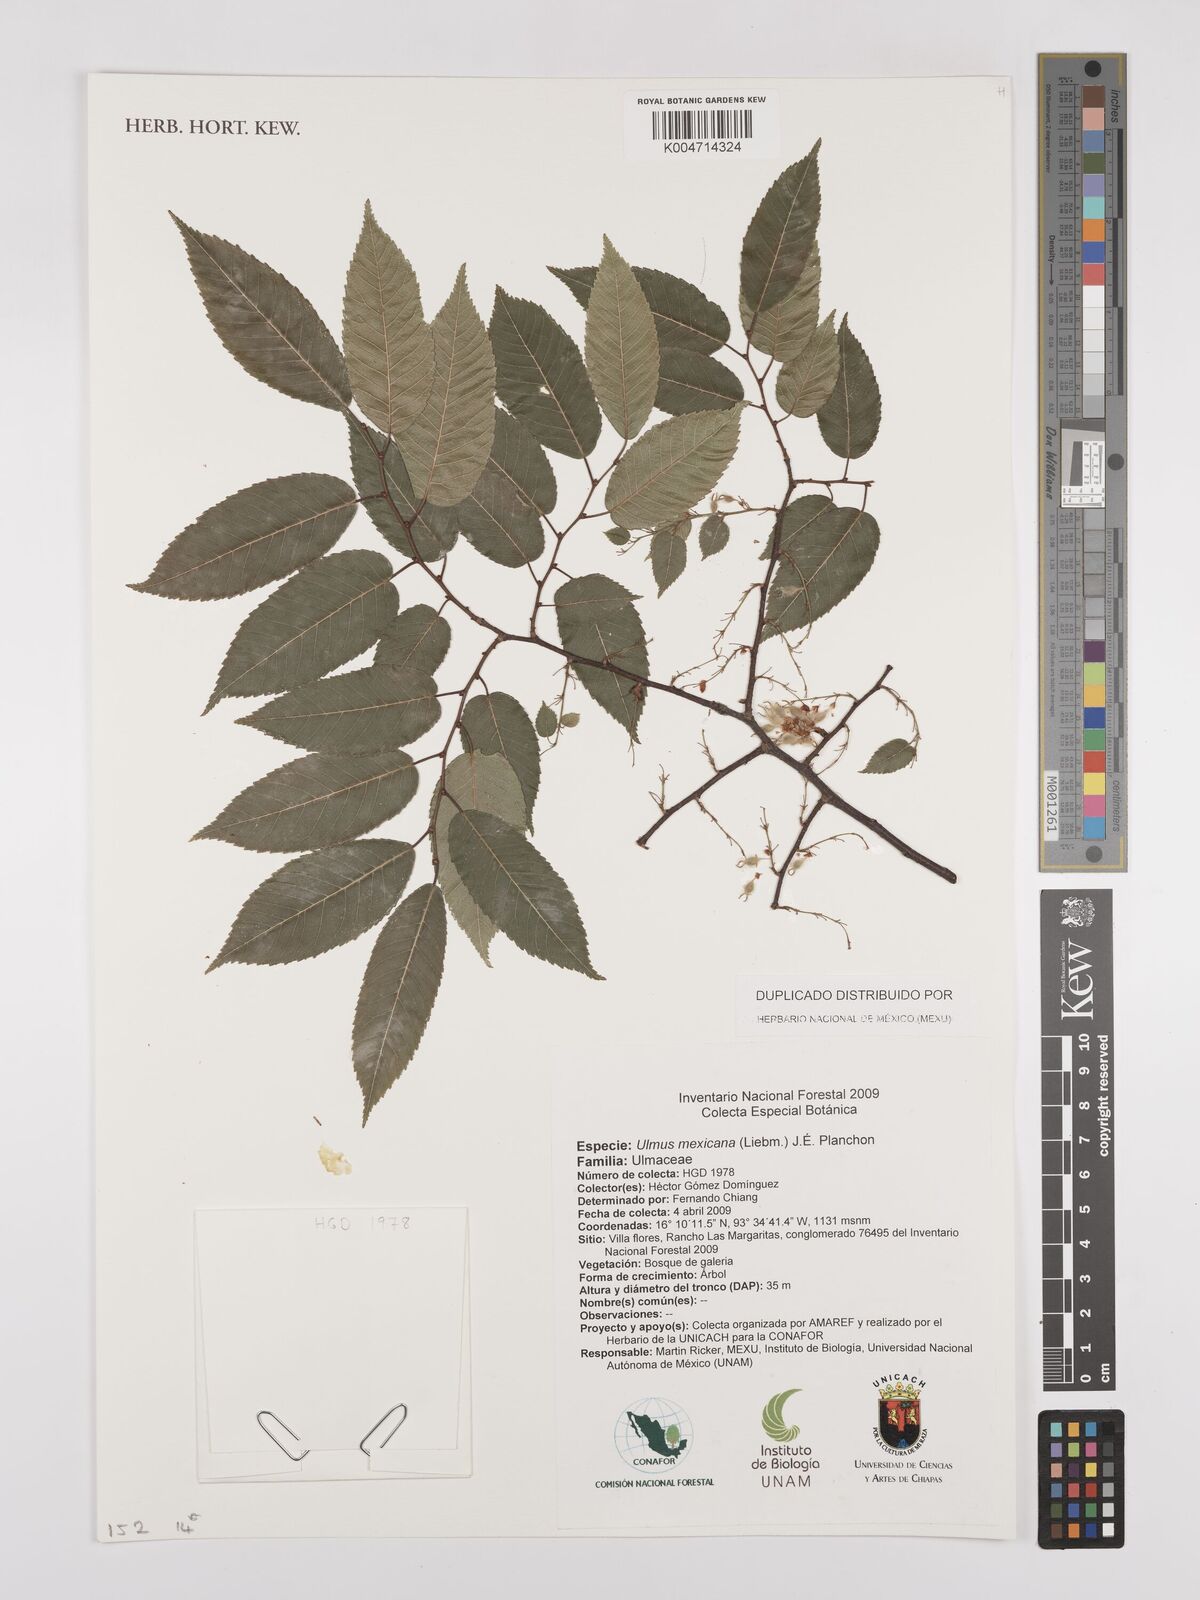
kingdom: Plantae
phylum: Tracheophyta
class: Magnoliopsida
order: Rosales
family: Ulmaceae
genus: Ulmus
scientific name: Ulmus mexicana
